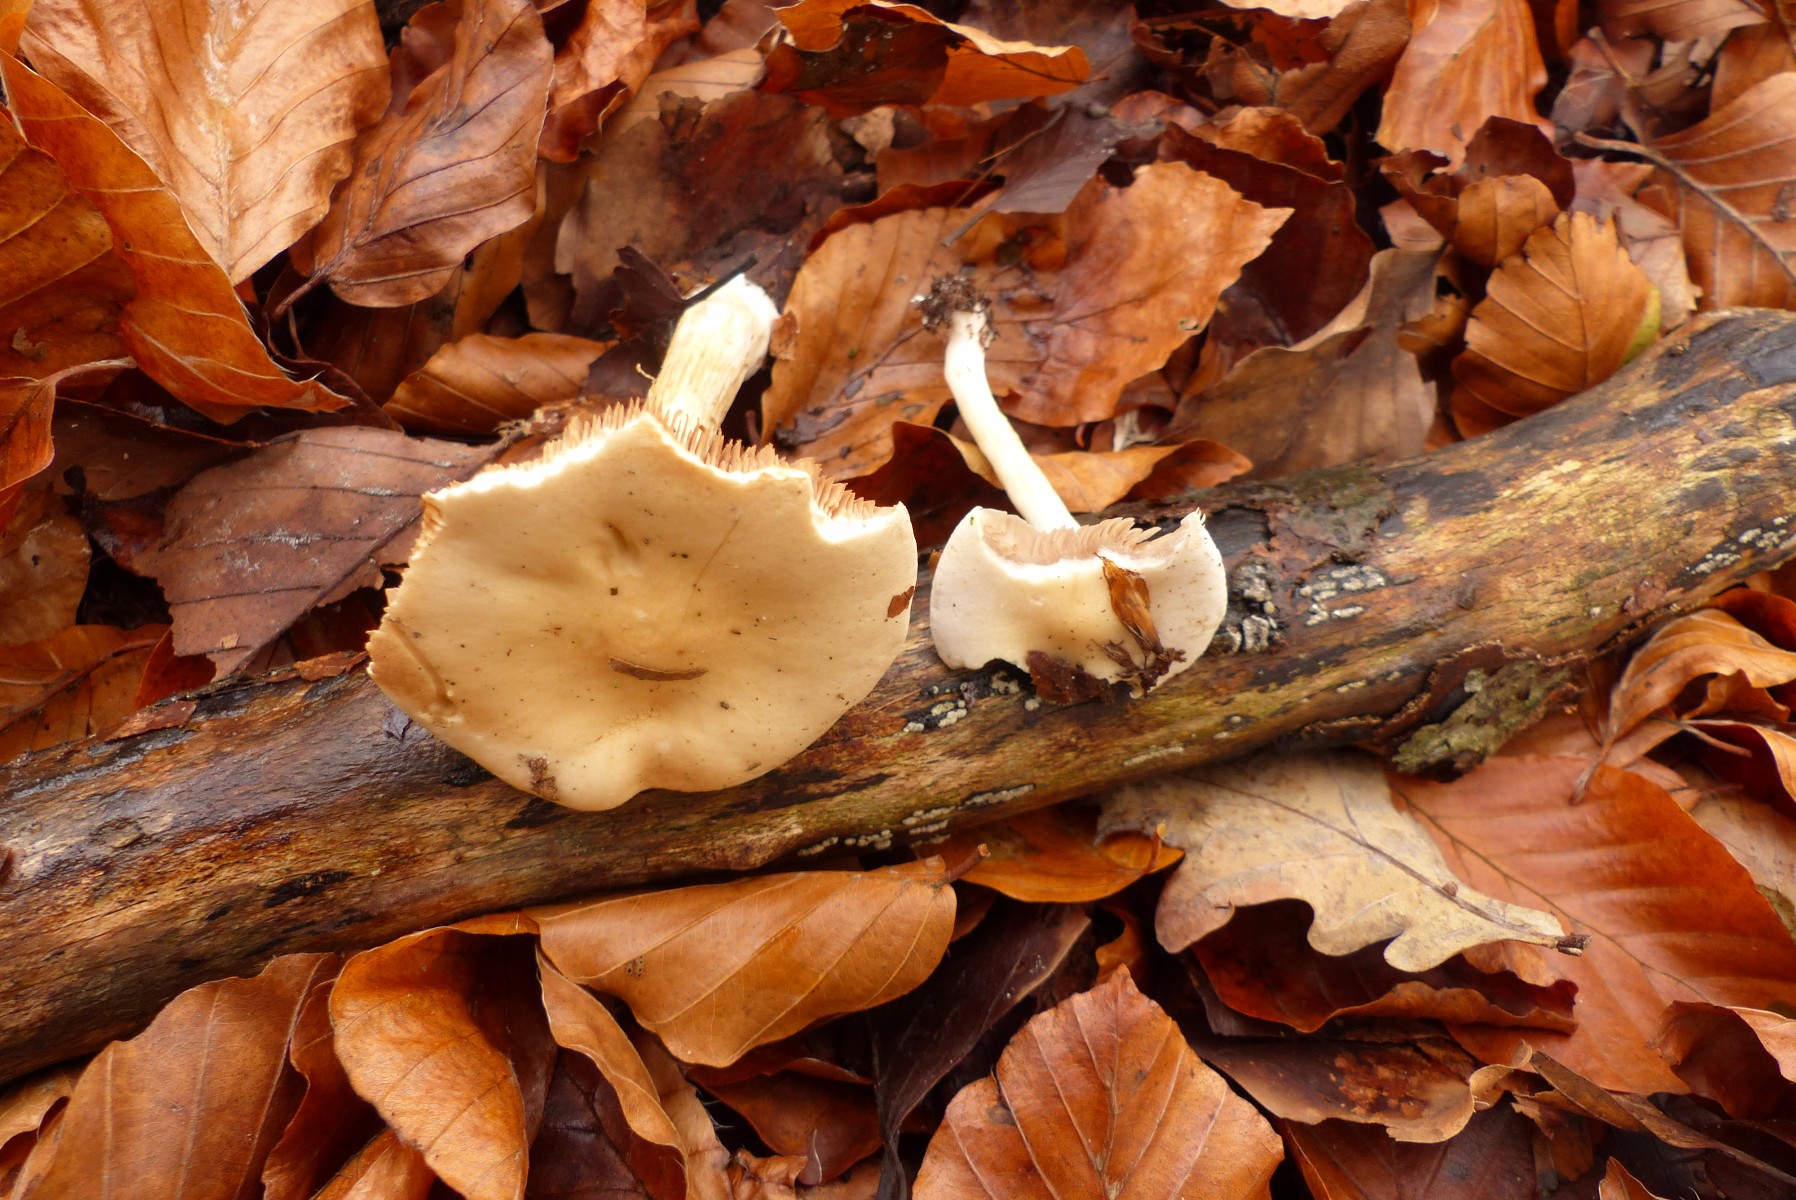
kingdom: Fungi
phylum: Basidiomycota
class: Agaricomycetes
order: Agaricales
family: Hymenogastraceae
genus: Hebeloma
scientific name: Hebeloma
